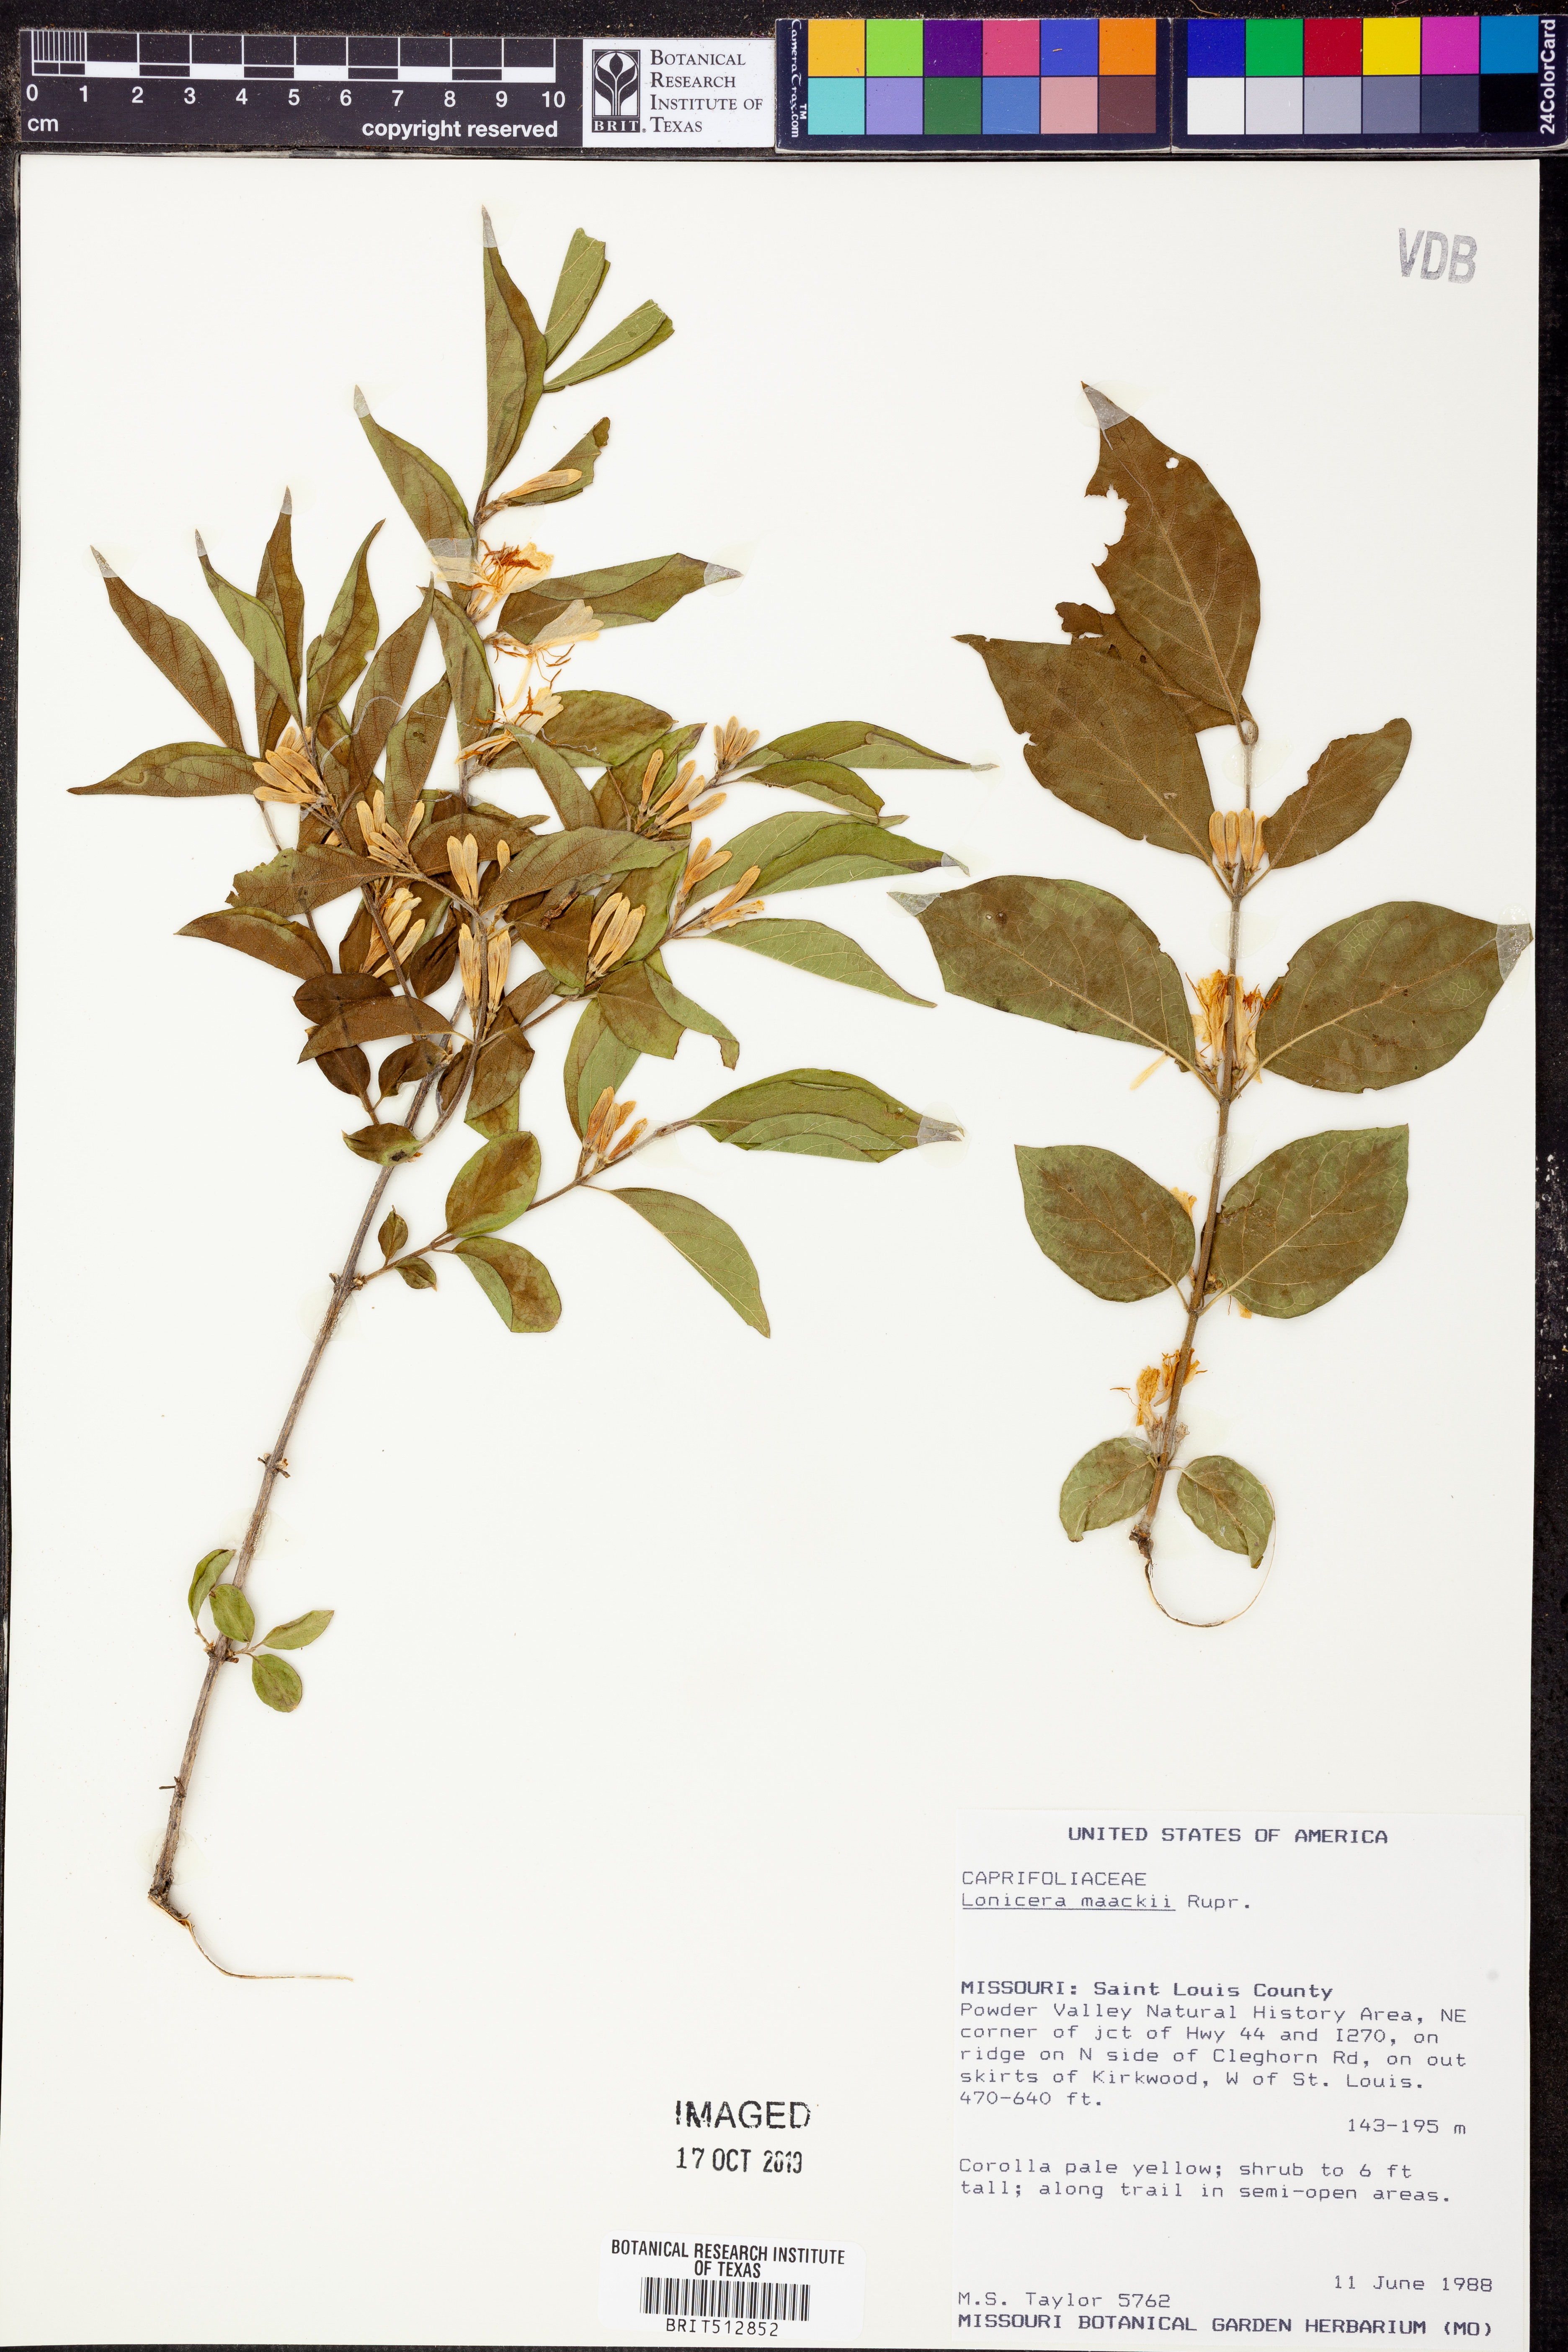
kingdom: Plantae
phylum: Tracheophyta
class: Magnoliopsida
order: Dipsacales
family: Caprifoliaceae
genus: Lonicera
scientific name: Lonicera maackii
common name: Amur honeysuckle
